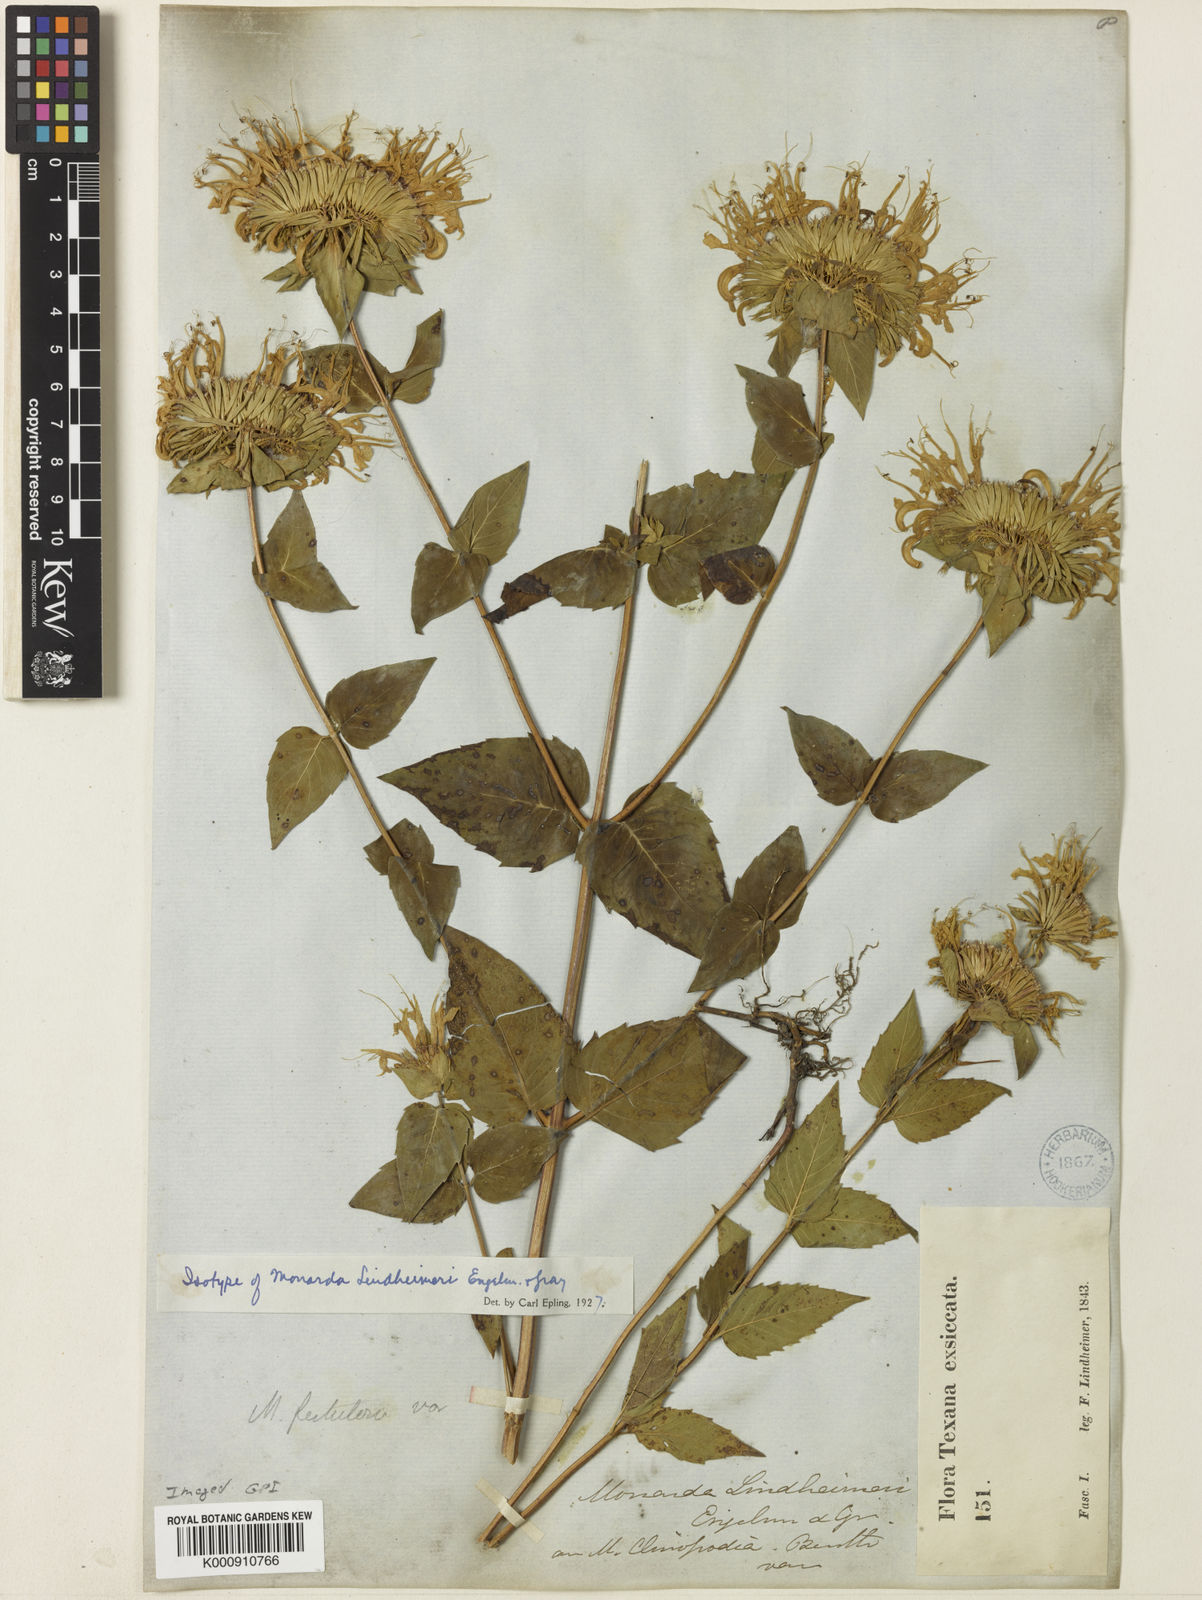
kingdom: Plantae
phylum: Tracheophyta
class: Magnoliopsida
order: Lamiales
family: Lamiaceae
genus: Monarda
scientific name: Monarda lindheimeri
